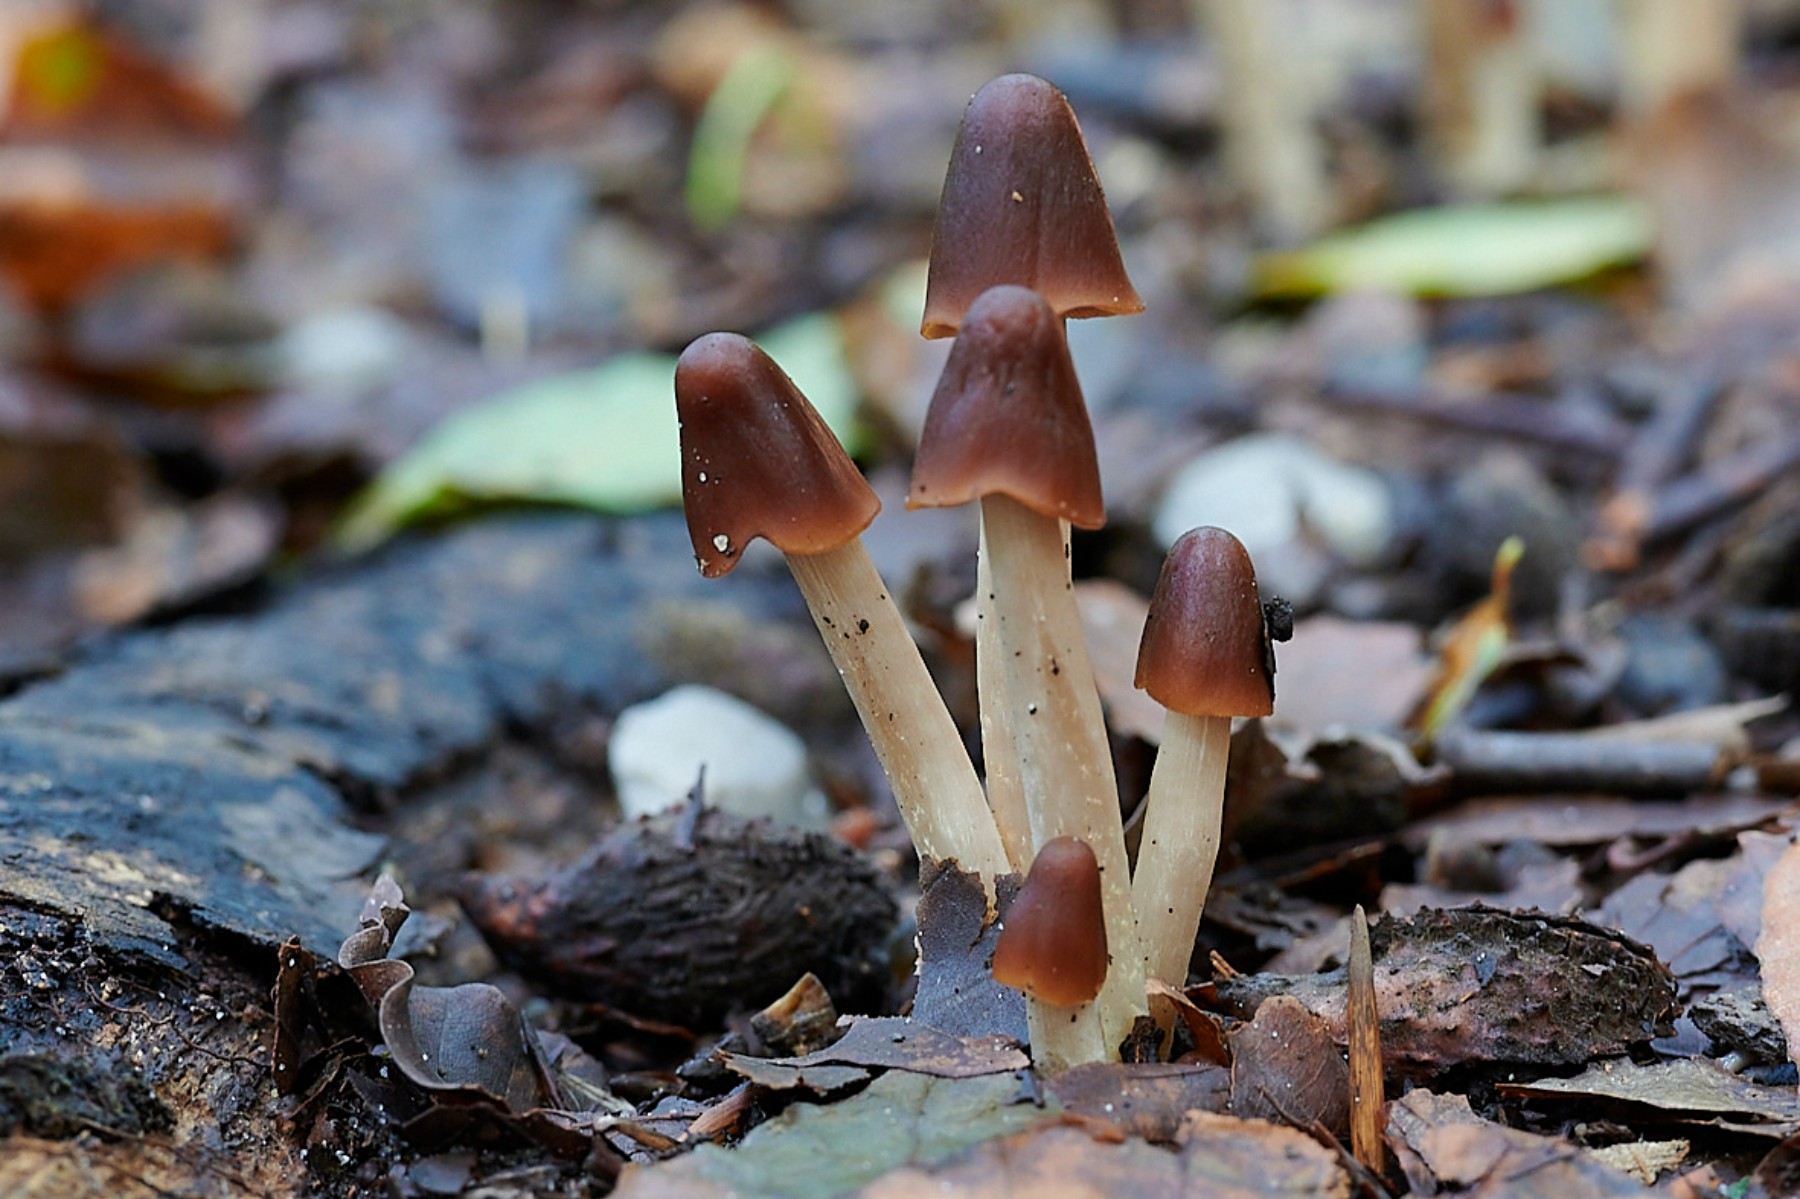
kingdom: Fungi
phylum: Basidiomycota
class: Agaricomycetes
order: Agaricales
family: Psathyrellaceae
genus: Parasola
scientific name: Parasola conopilea
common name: kegle-hjulhat
